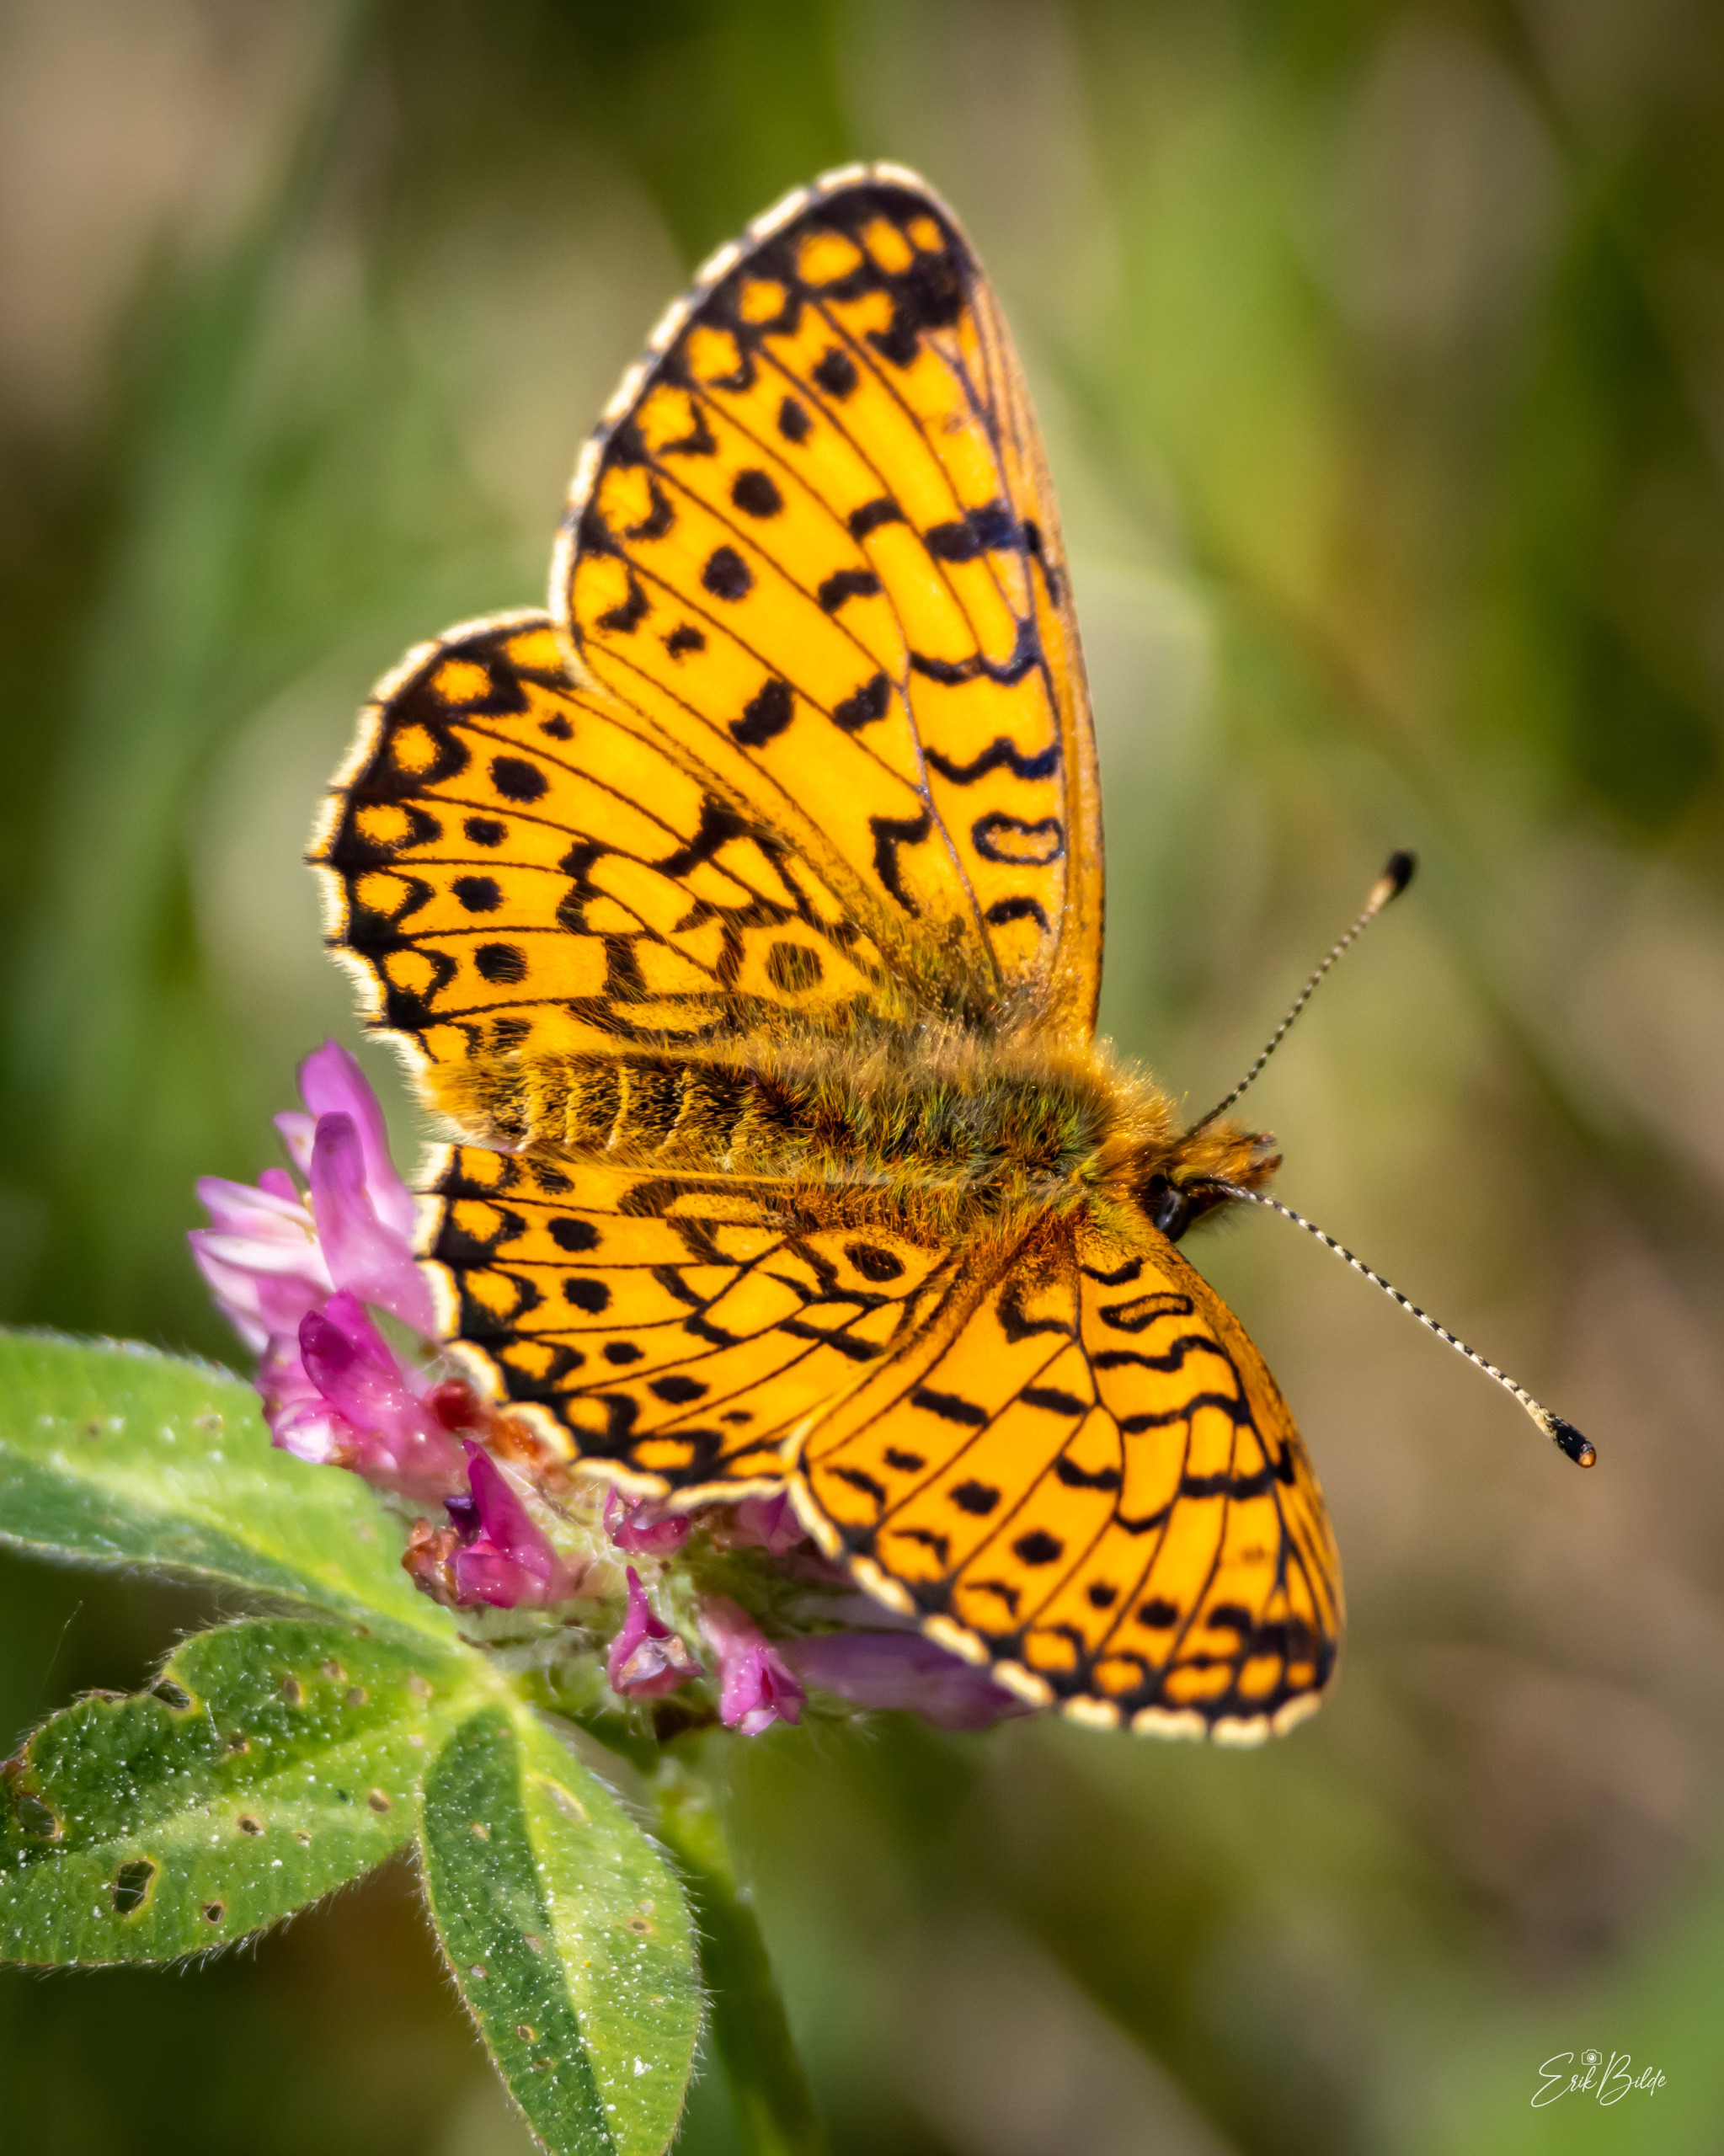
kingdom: Animalia
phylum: Arthropoda
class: Insecta
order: Lepidoptera
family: Nymphalidae
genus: Boloria
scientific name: Boloria selene
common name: Brunlig perlemorsommerfugl
